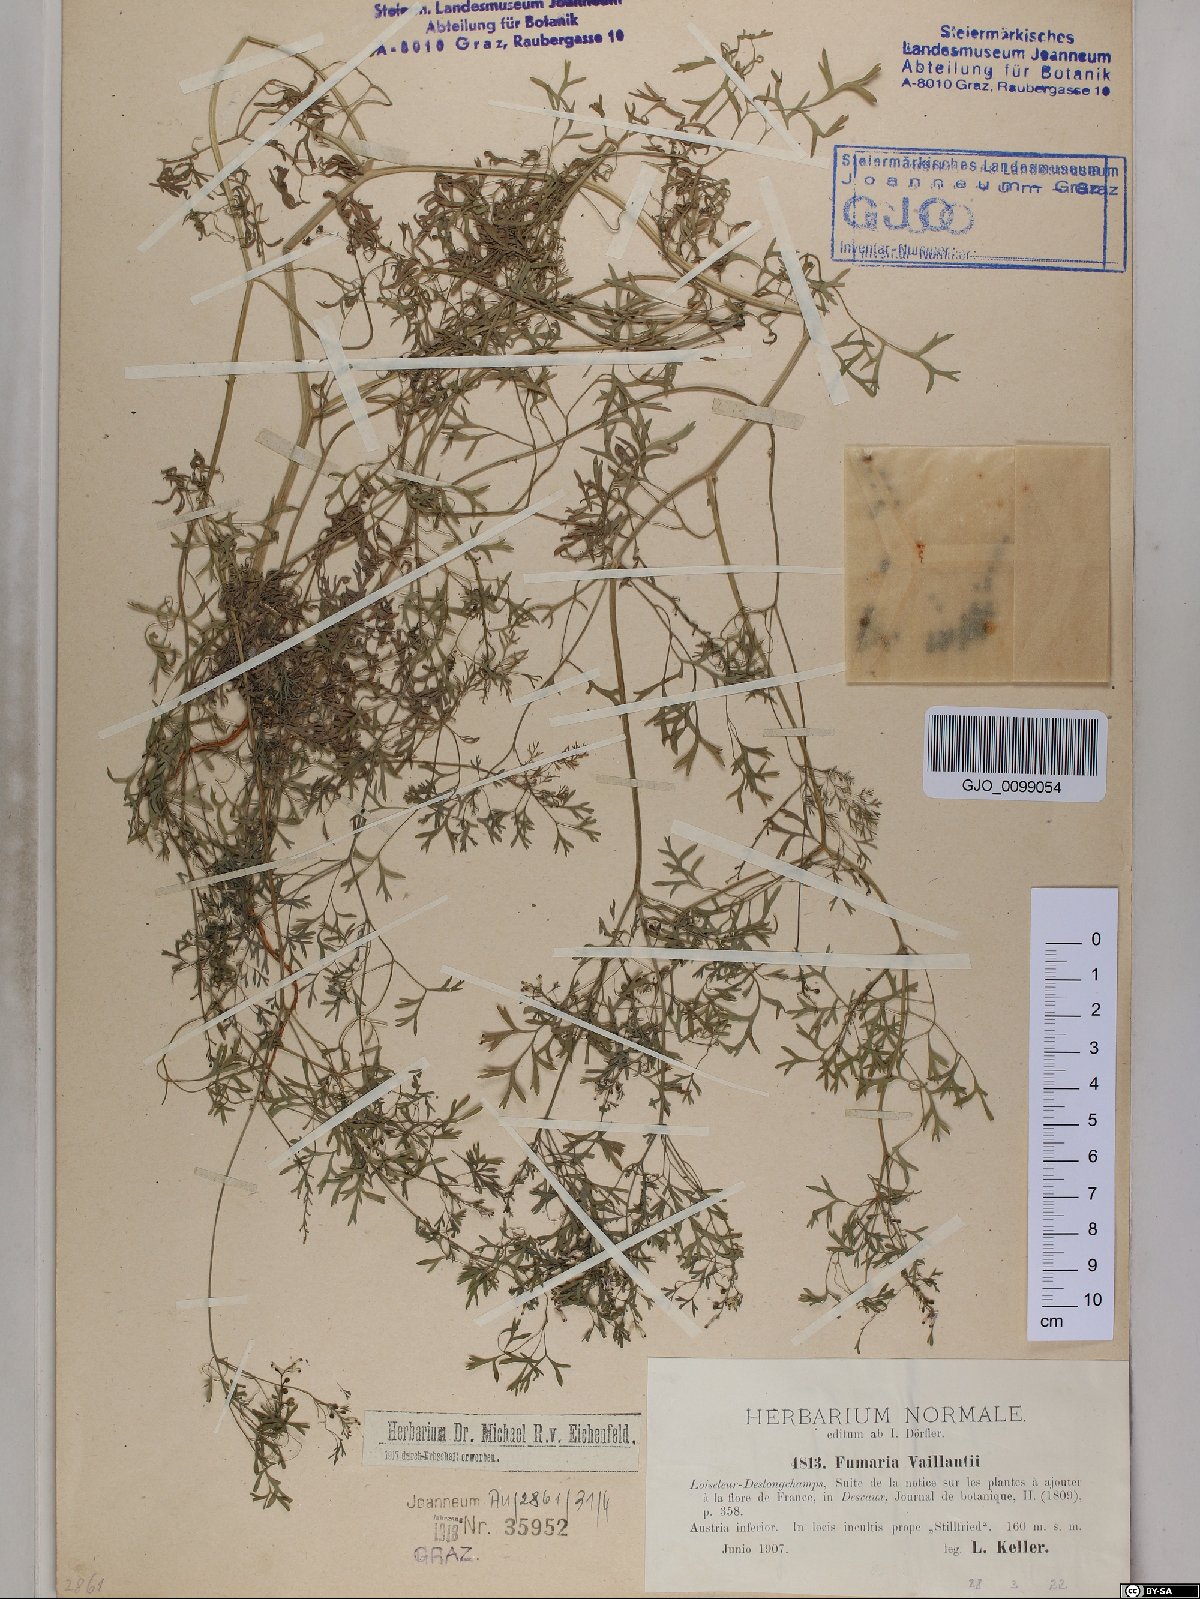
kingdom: Plantae
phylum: Tracheophyta
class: Magnoliopsida
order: Ranunculales
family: Papaveraceae
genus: Fumaria
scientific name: Fumaria vaillantii
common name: Few-flowered fumitory
